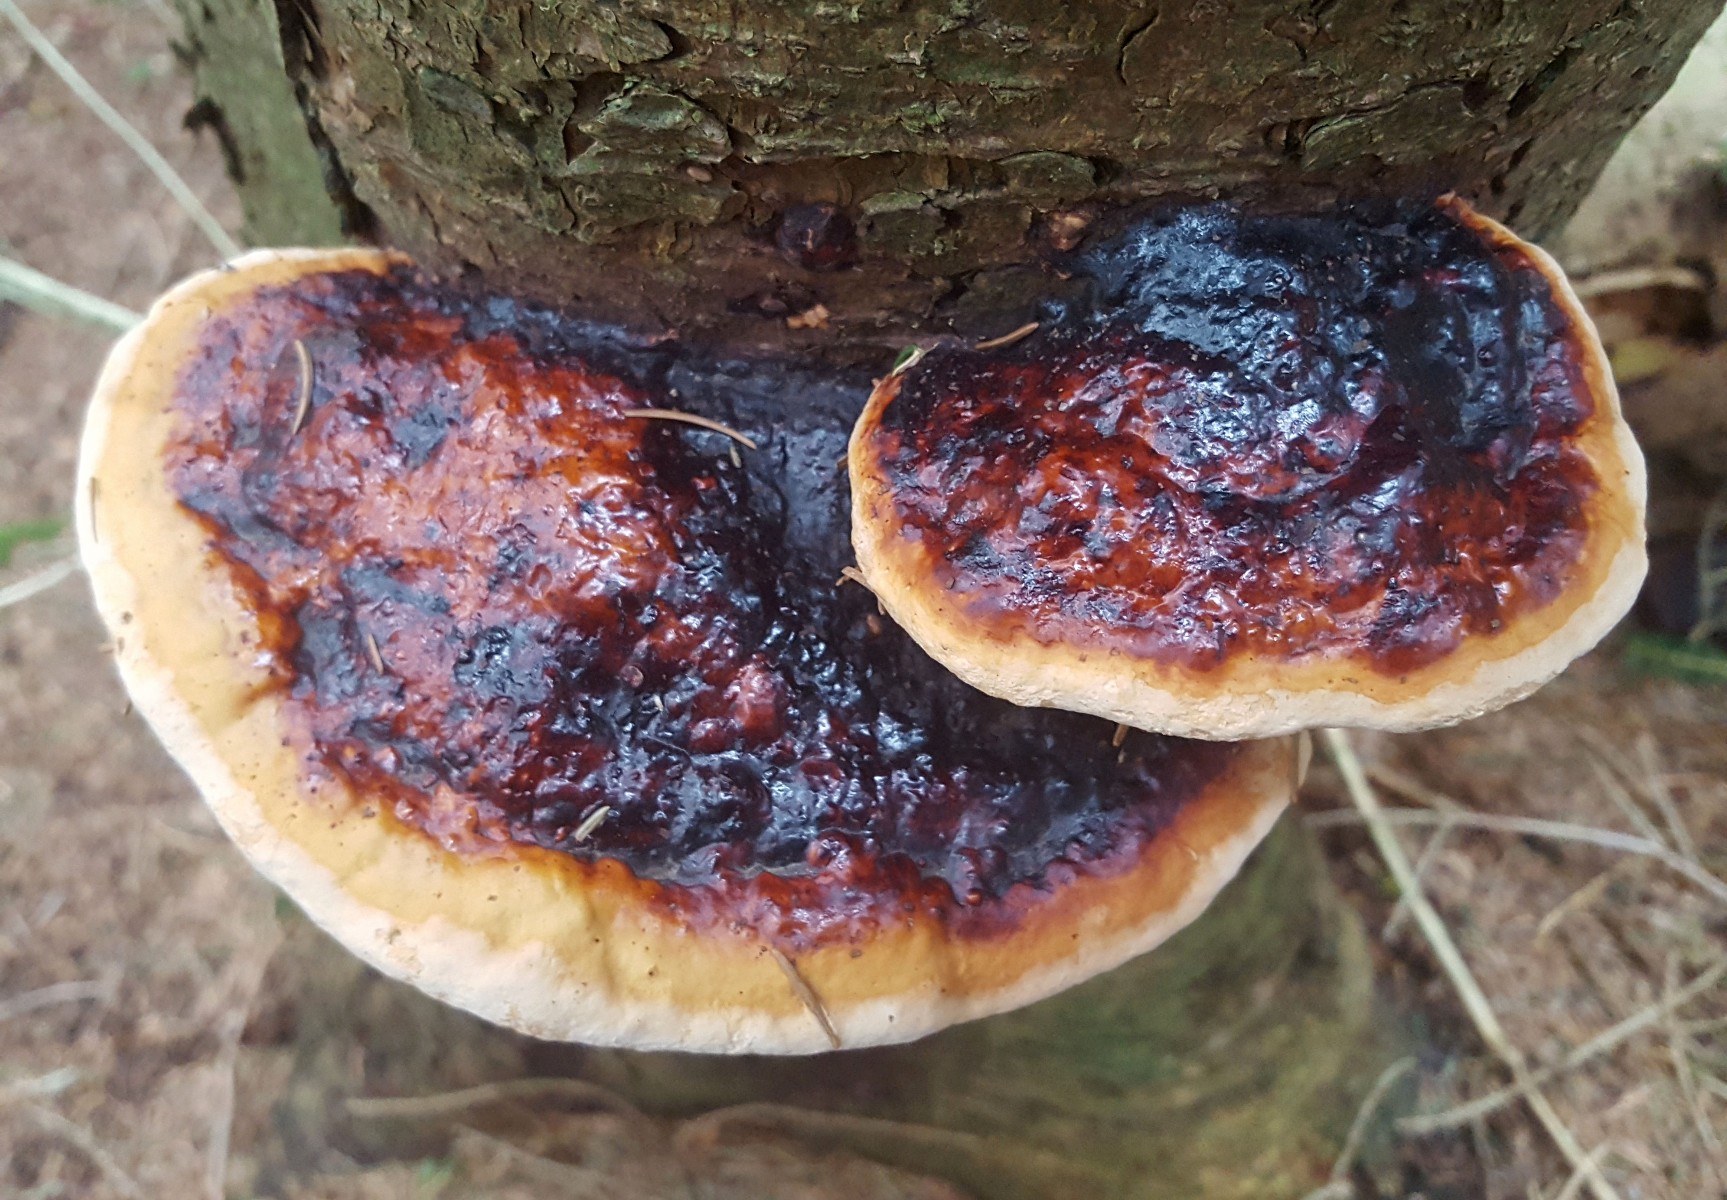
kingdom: Fungi
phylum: Basidiomycota
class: Agaricomycetes
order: Polyporales
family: Fomitopsidaceae
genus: Fomitopsis
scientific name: Fomitopsis pinicola
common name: randbæltet hovporesvamp
